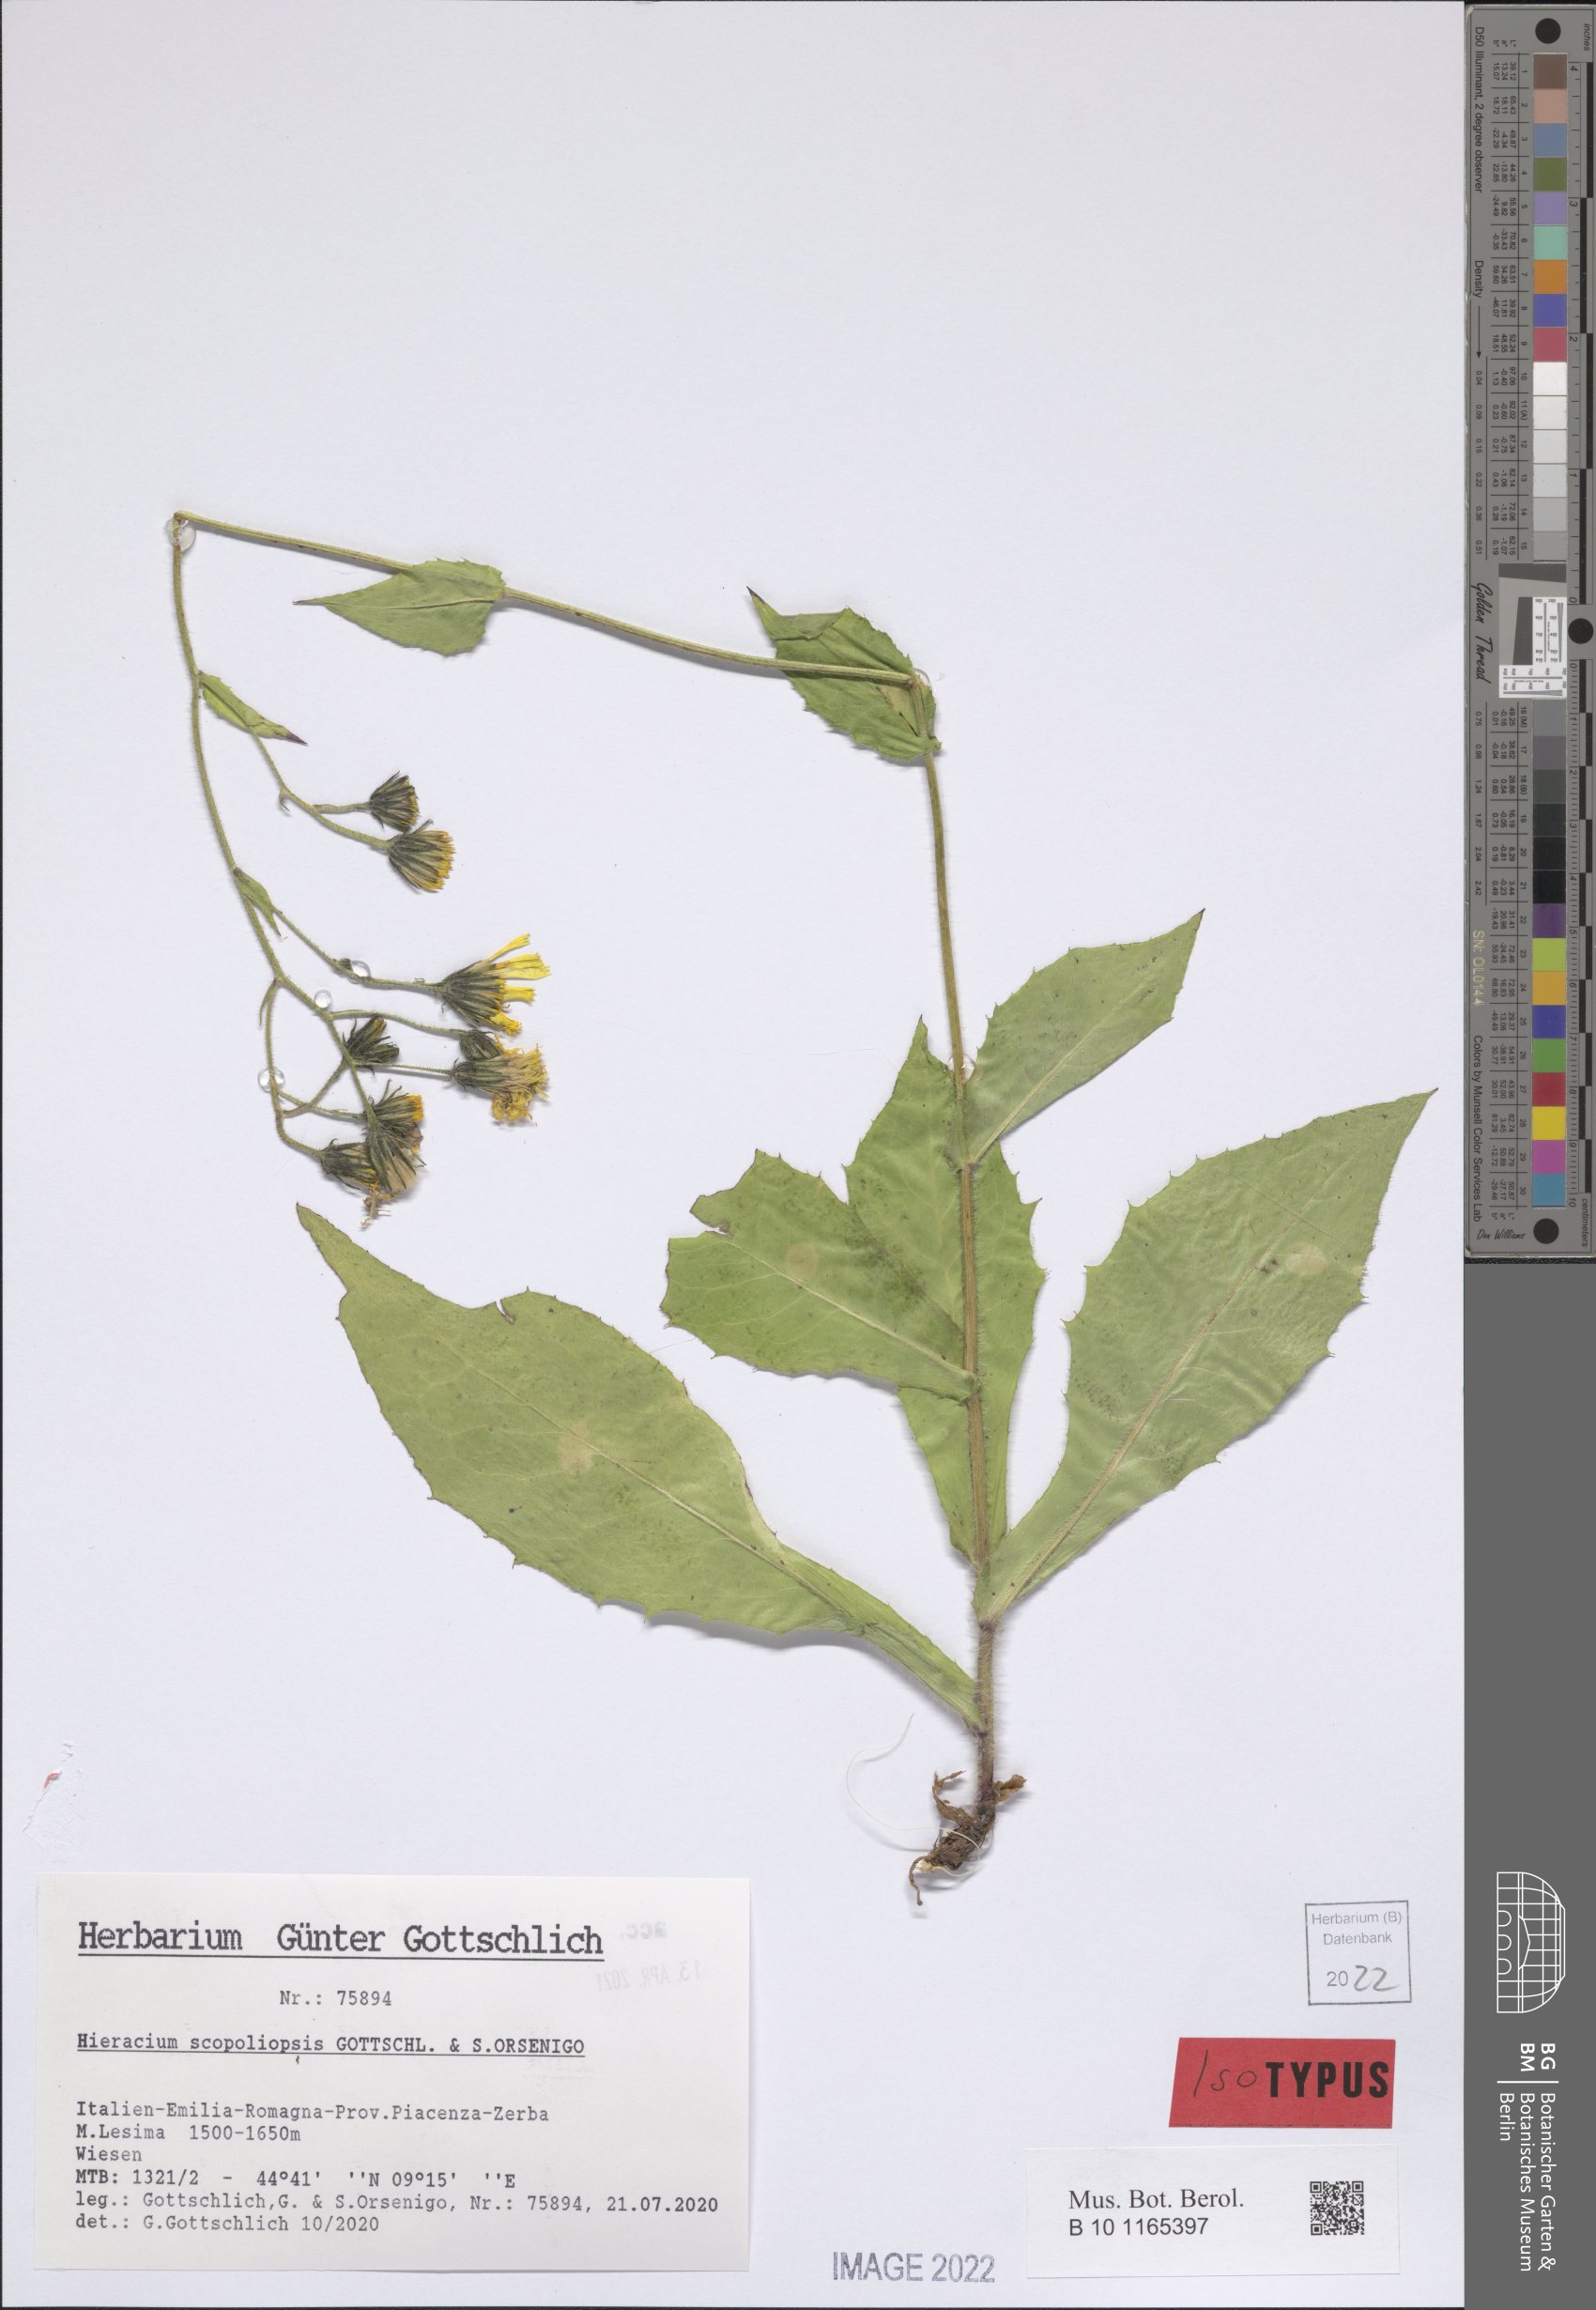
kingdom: Plantae
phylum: Tracheophyta
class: Magnoliopsida
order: Asterales
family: Asteraceae
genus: Hieracium
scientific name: Hieracium
